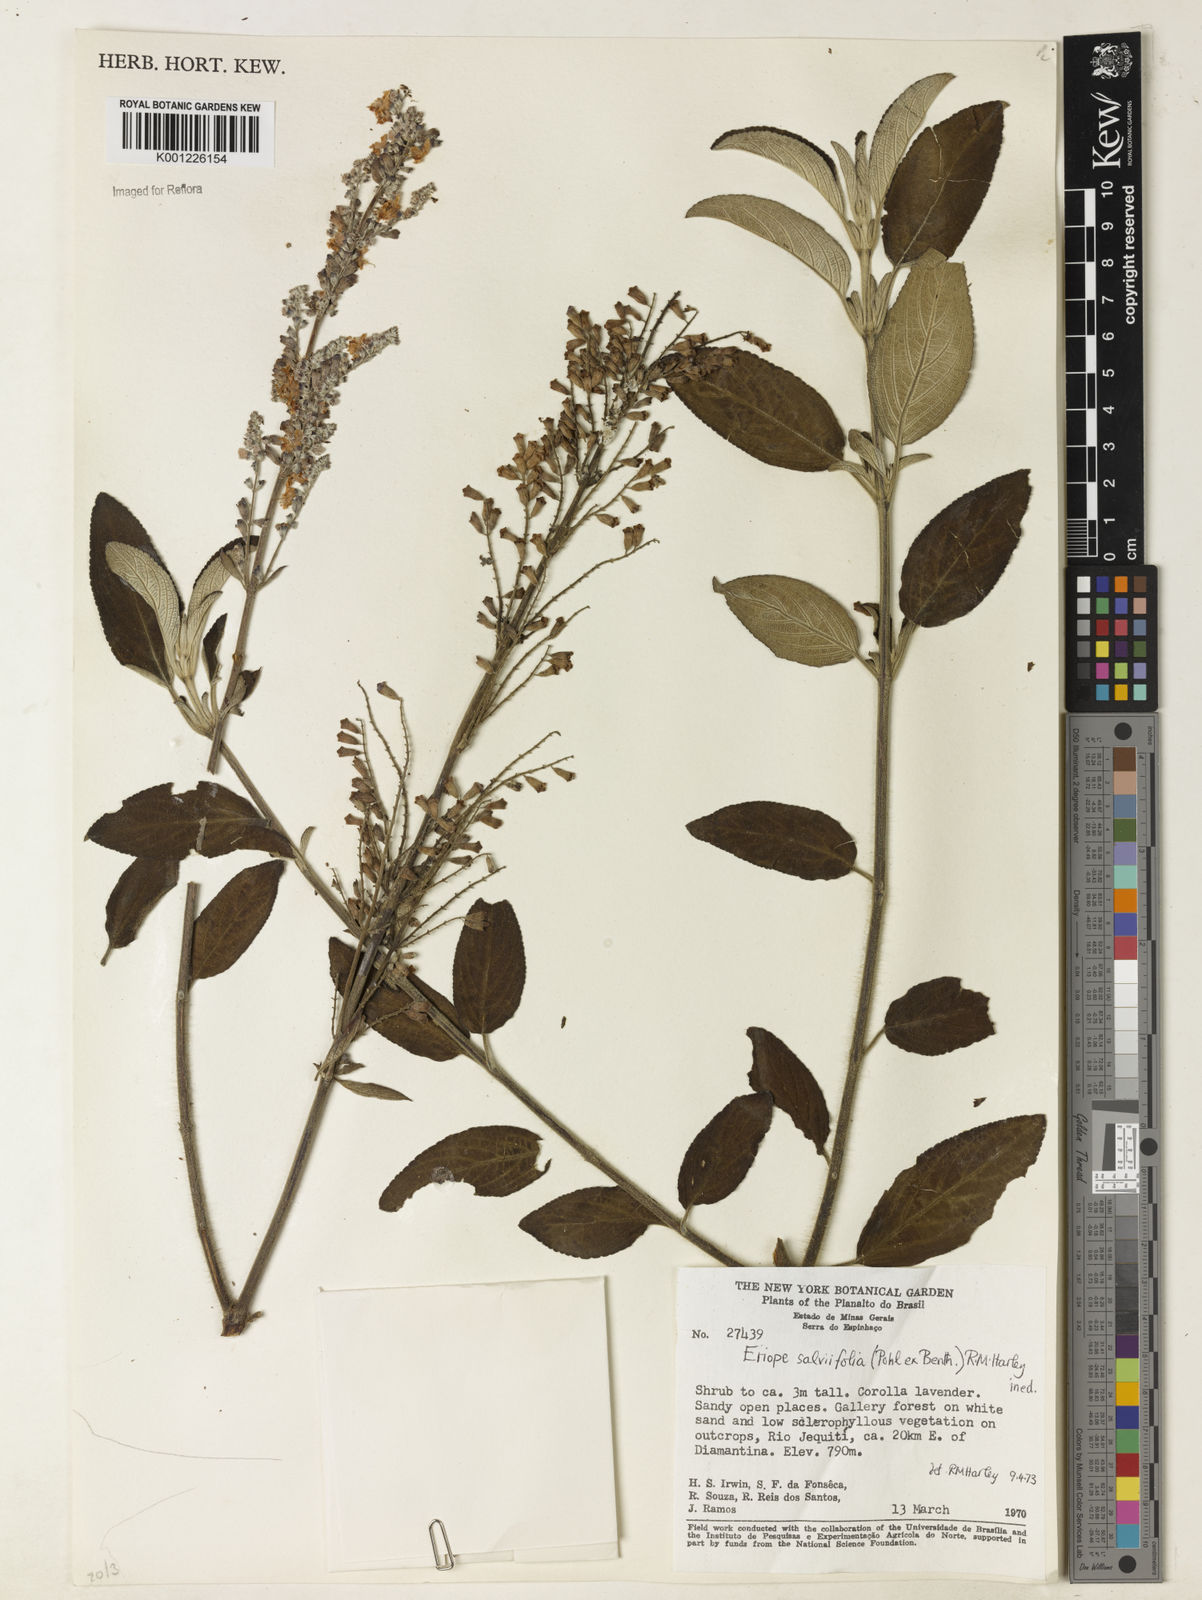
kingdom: Plantae
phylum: Tracheophyta
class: Magnoliopsida
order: Lamiales
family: Lamiaceae
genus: Eriope
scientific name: Eriope salviifolia
